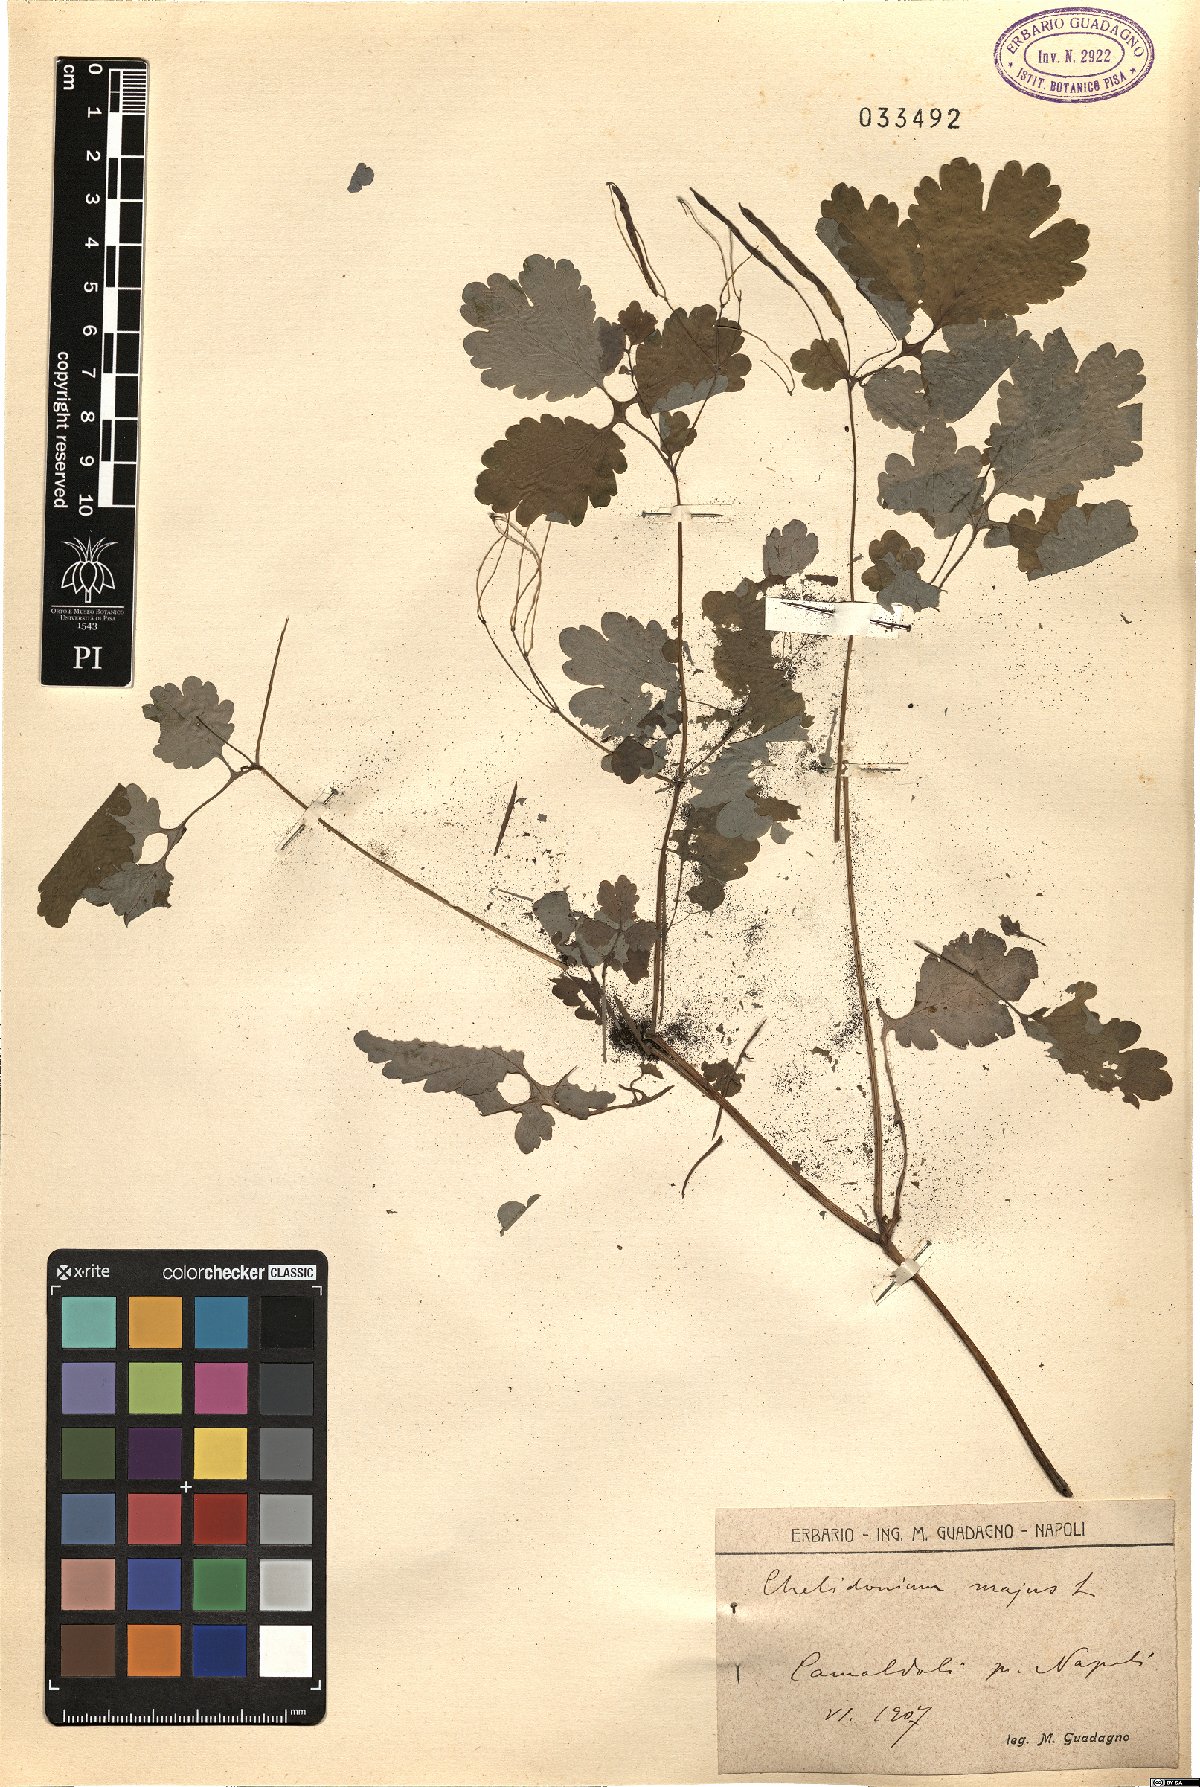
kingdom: Plantae
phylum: Tracheophyta
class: Magnoliopsida
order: Ranunculales
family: Papaveraceae
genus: Chelidonium
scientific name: Chelidonium majus
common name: Greater celandine
